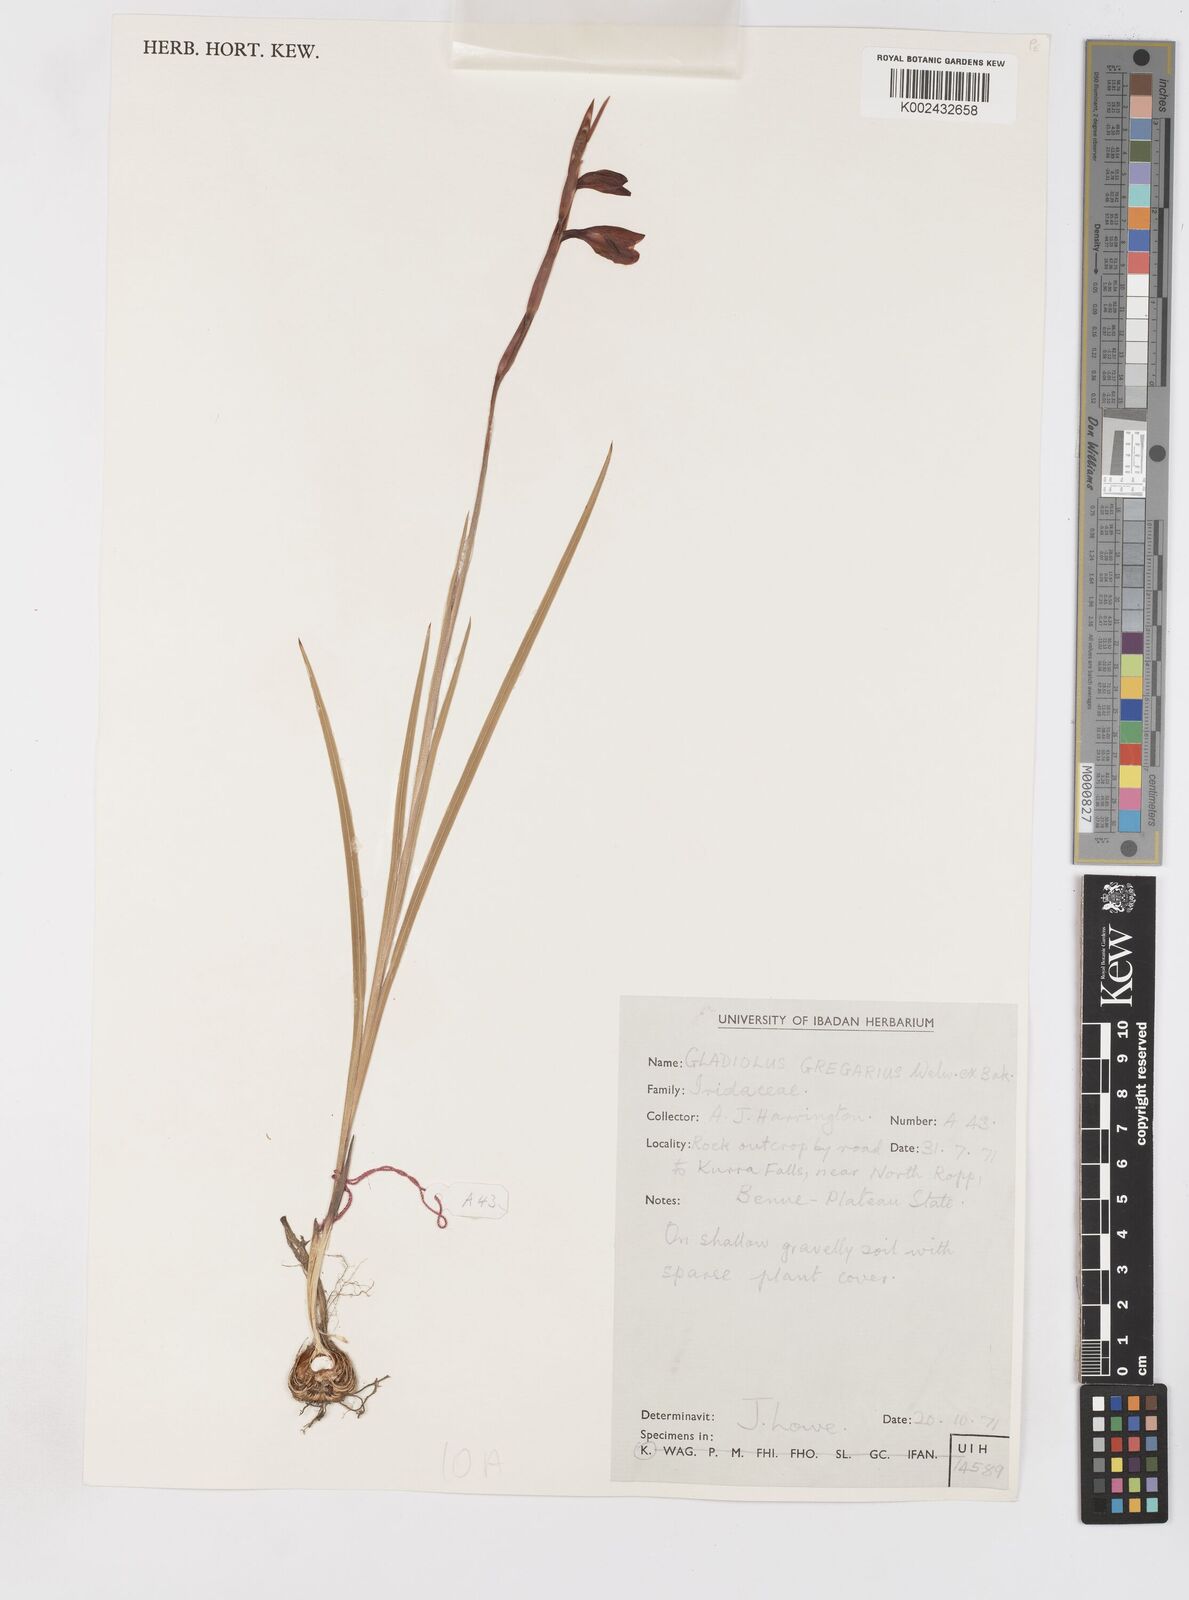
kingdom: Plantae
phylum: Tracheophyta
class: Liliopsida
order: Asparagales
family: Iridaceae
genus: Gladiolus
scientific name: Gladiolus gregarius
